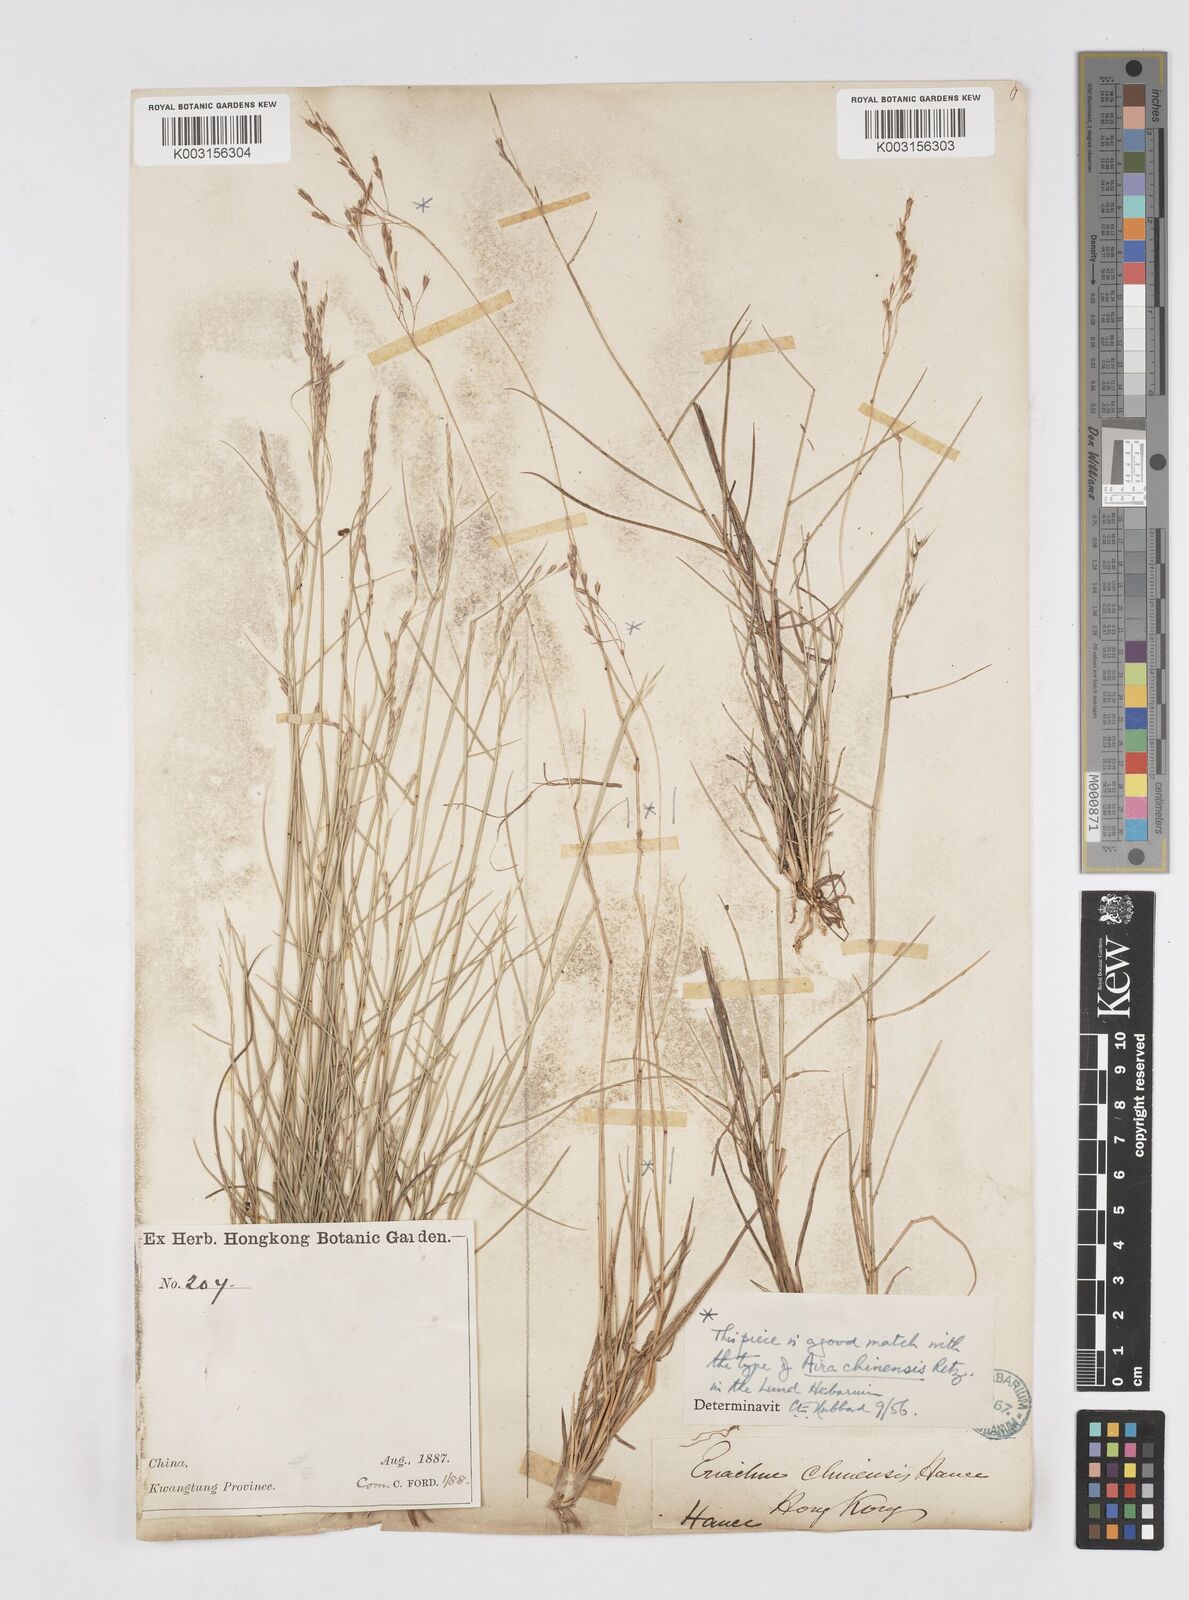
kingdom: Plantae
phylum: Tracheophyta
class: Liliopsida
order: Poales
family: Poaceae
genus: Eriachne
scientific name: Eriachne pallescens
